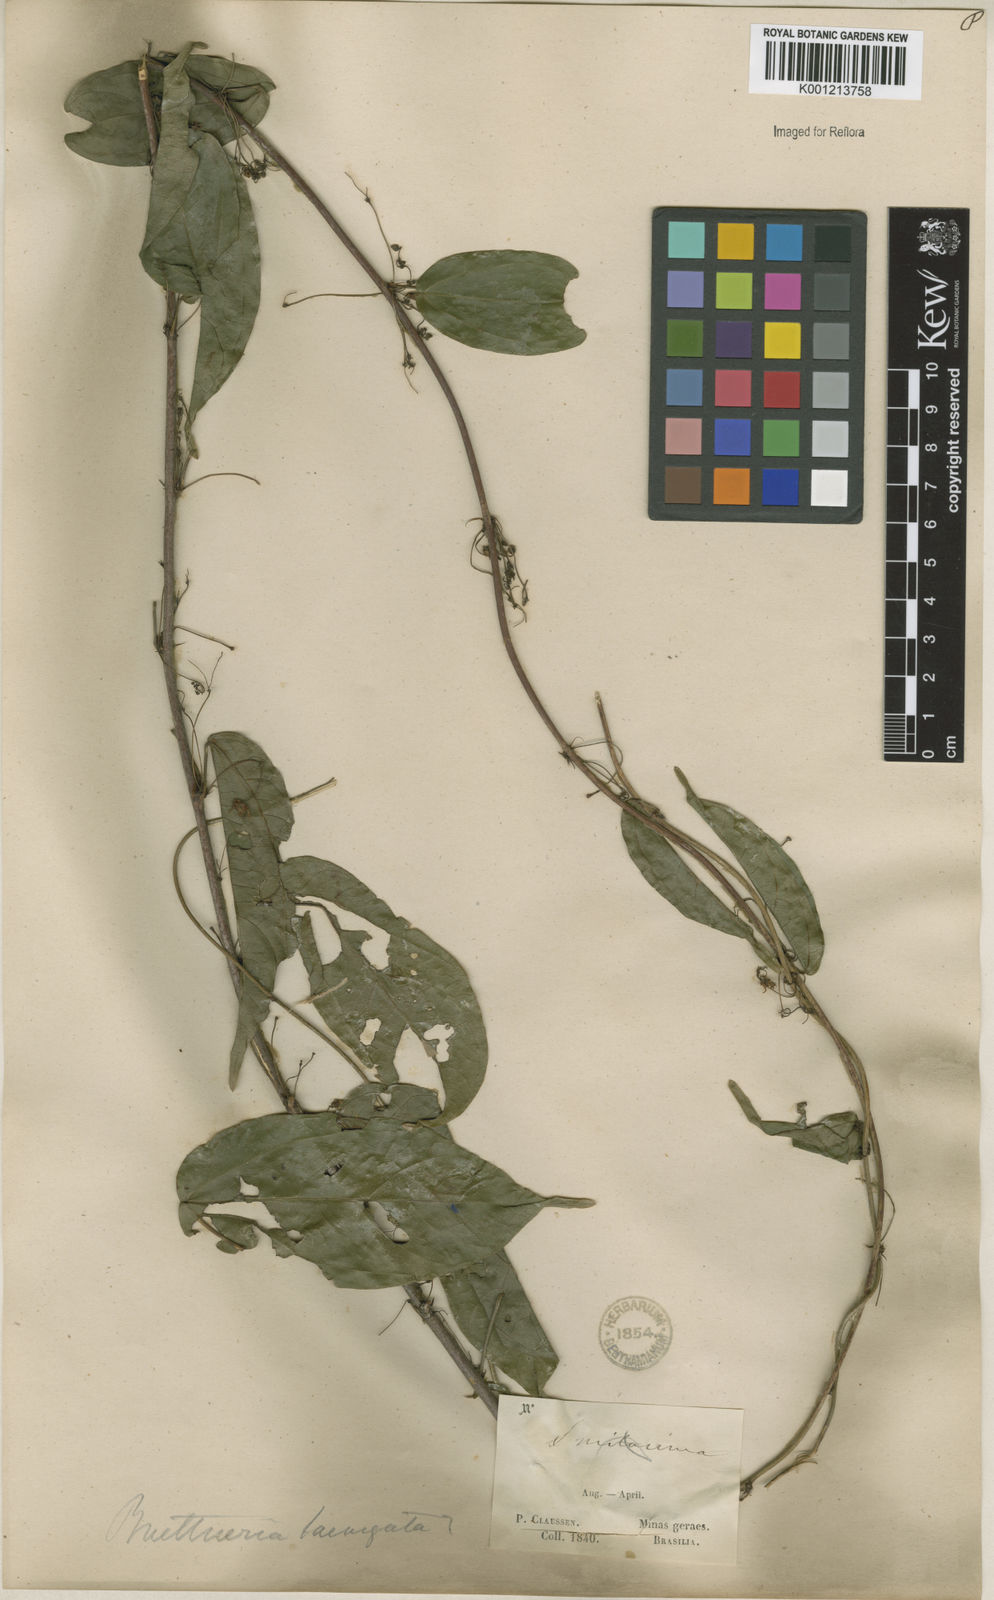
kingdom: Plantae
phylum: Tracheophyta
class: Magnoliopsida
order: Malvales
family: Malvaceae
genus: Byttneria
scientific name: Byttneria gayana
